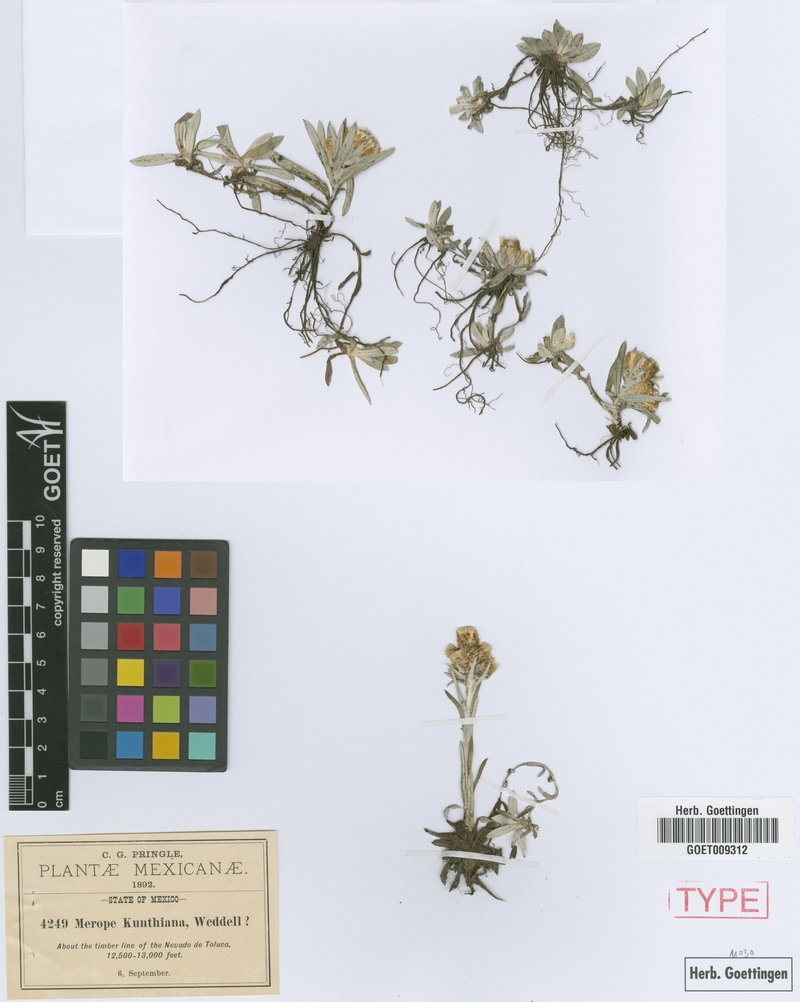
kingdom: Plantae
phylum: Tracheophyta
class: Magnoliopsida
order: Asterales
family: Asteraceae
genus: Mexerion
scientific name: Mexerion sarmentosum
